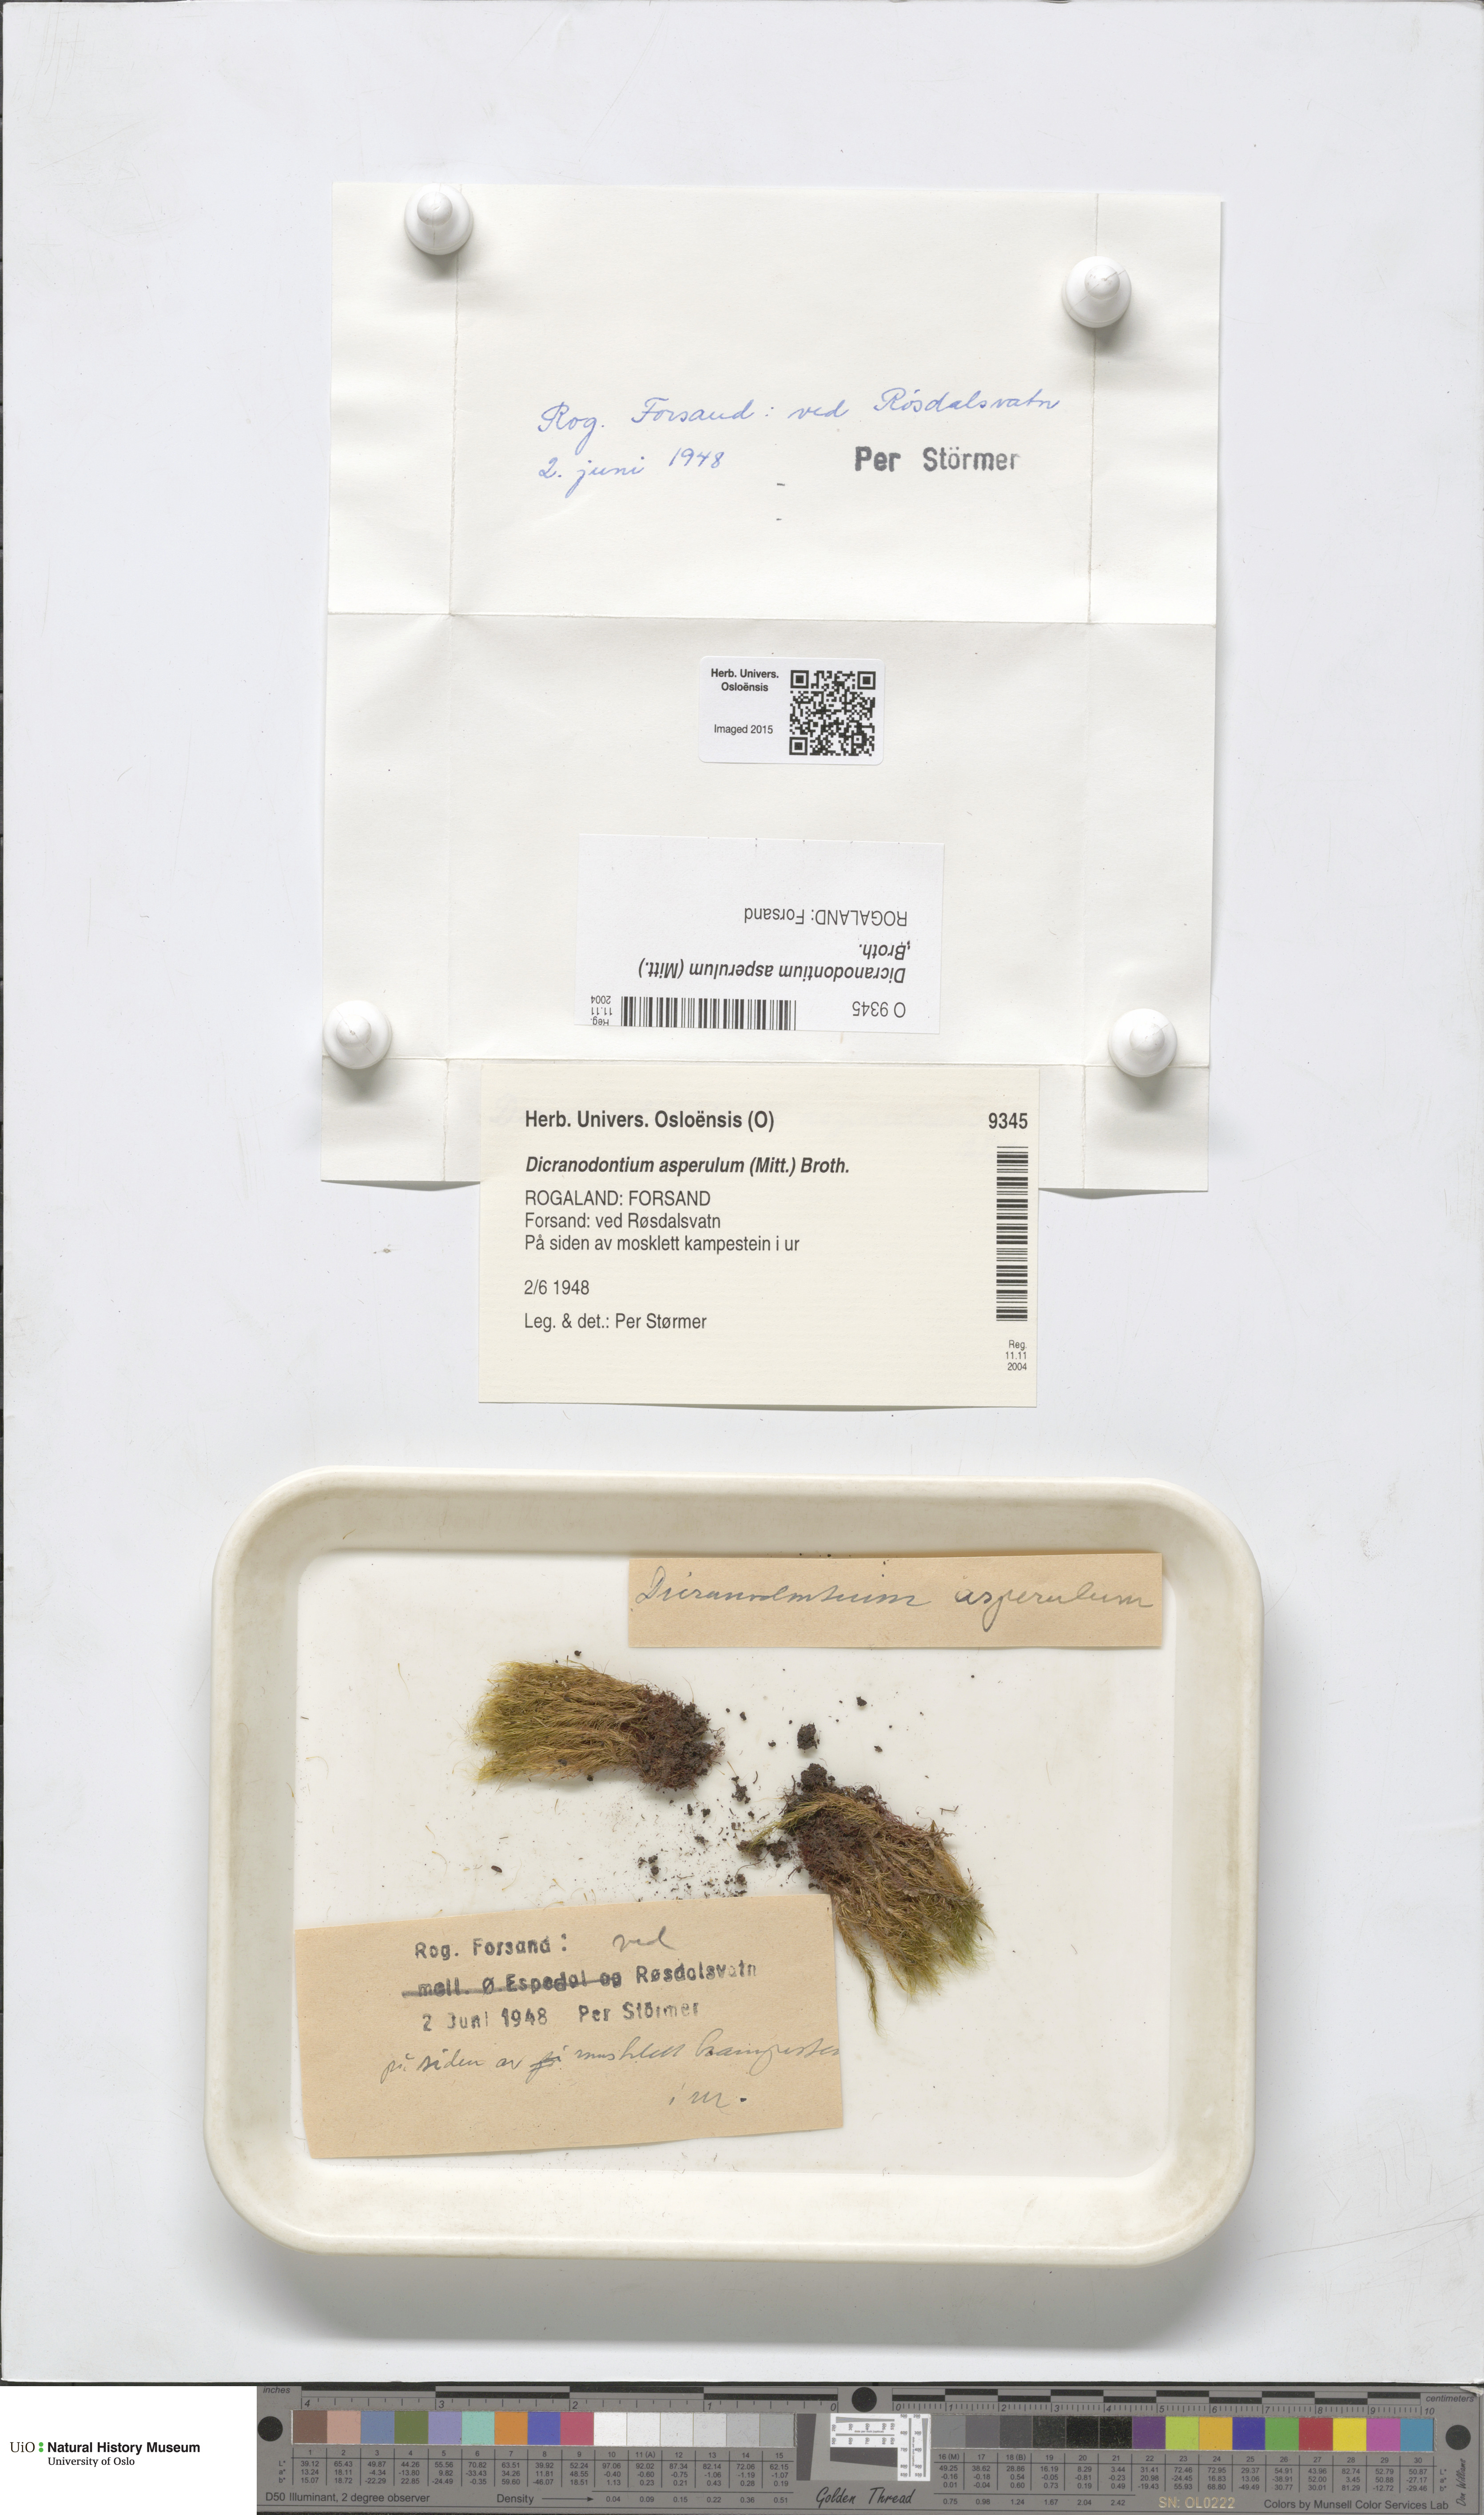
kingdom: Plantae
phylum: Bryophyta
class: Bryopsida
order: Dicranales
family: Leucobryaceae
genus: Dicranodontium
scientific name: Dicranodontium asperulum
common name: Orange bow-moss
